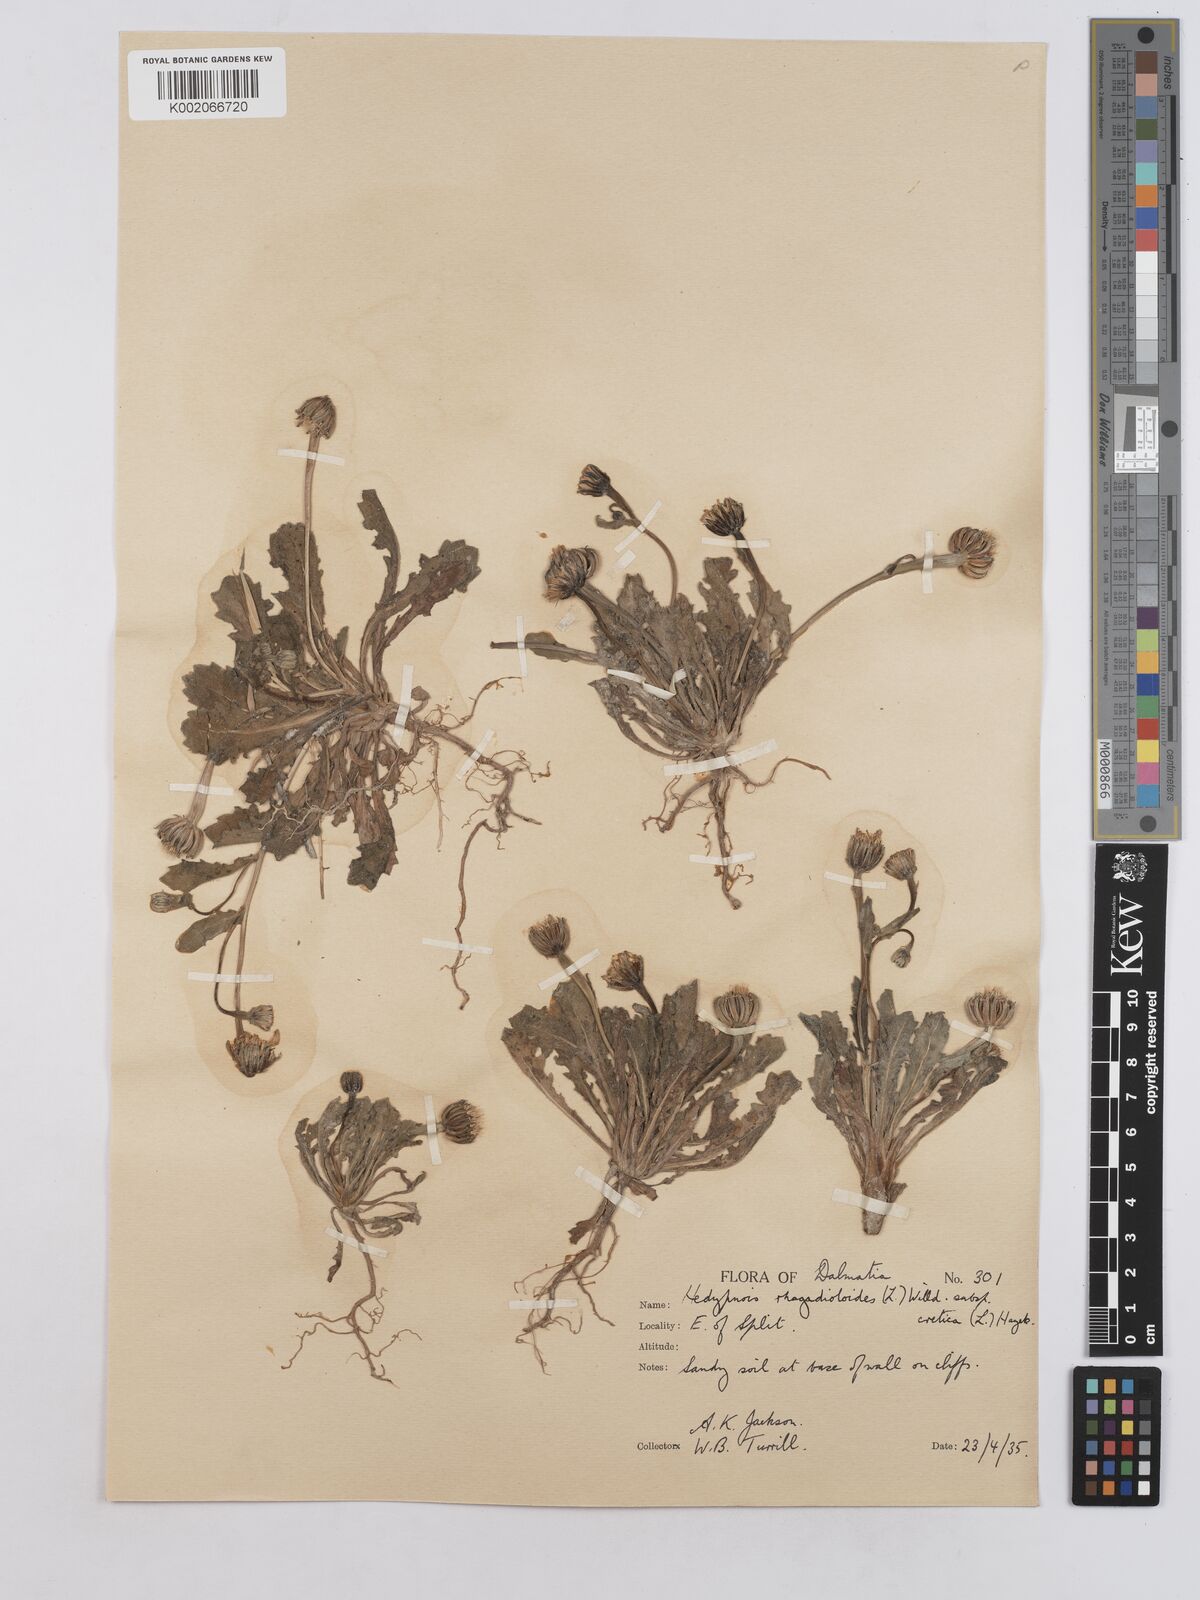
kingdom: Plantae
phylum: Tracheophyta
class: Magnoliopsida
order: Asterales
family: Asteraceae
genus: Hedypnois
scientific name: Hedypnois rhagadioloides
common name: Cretan weed
